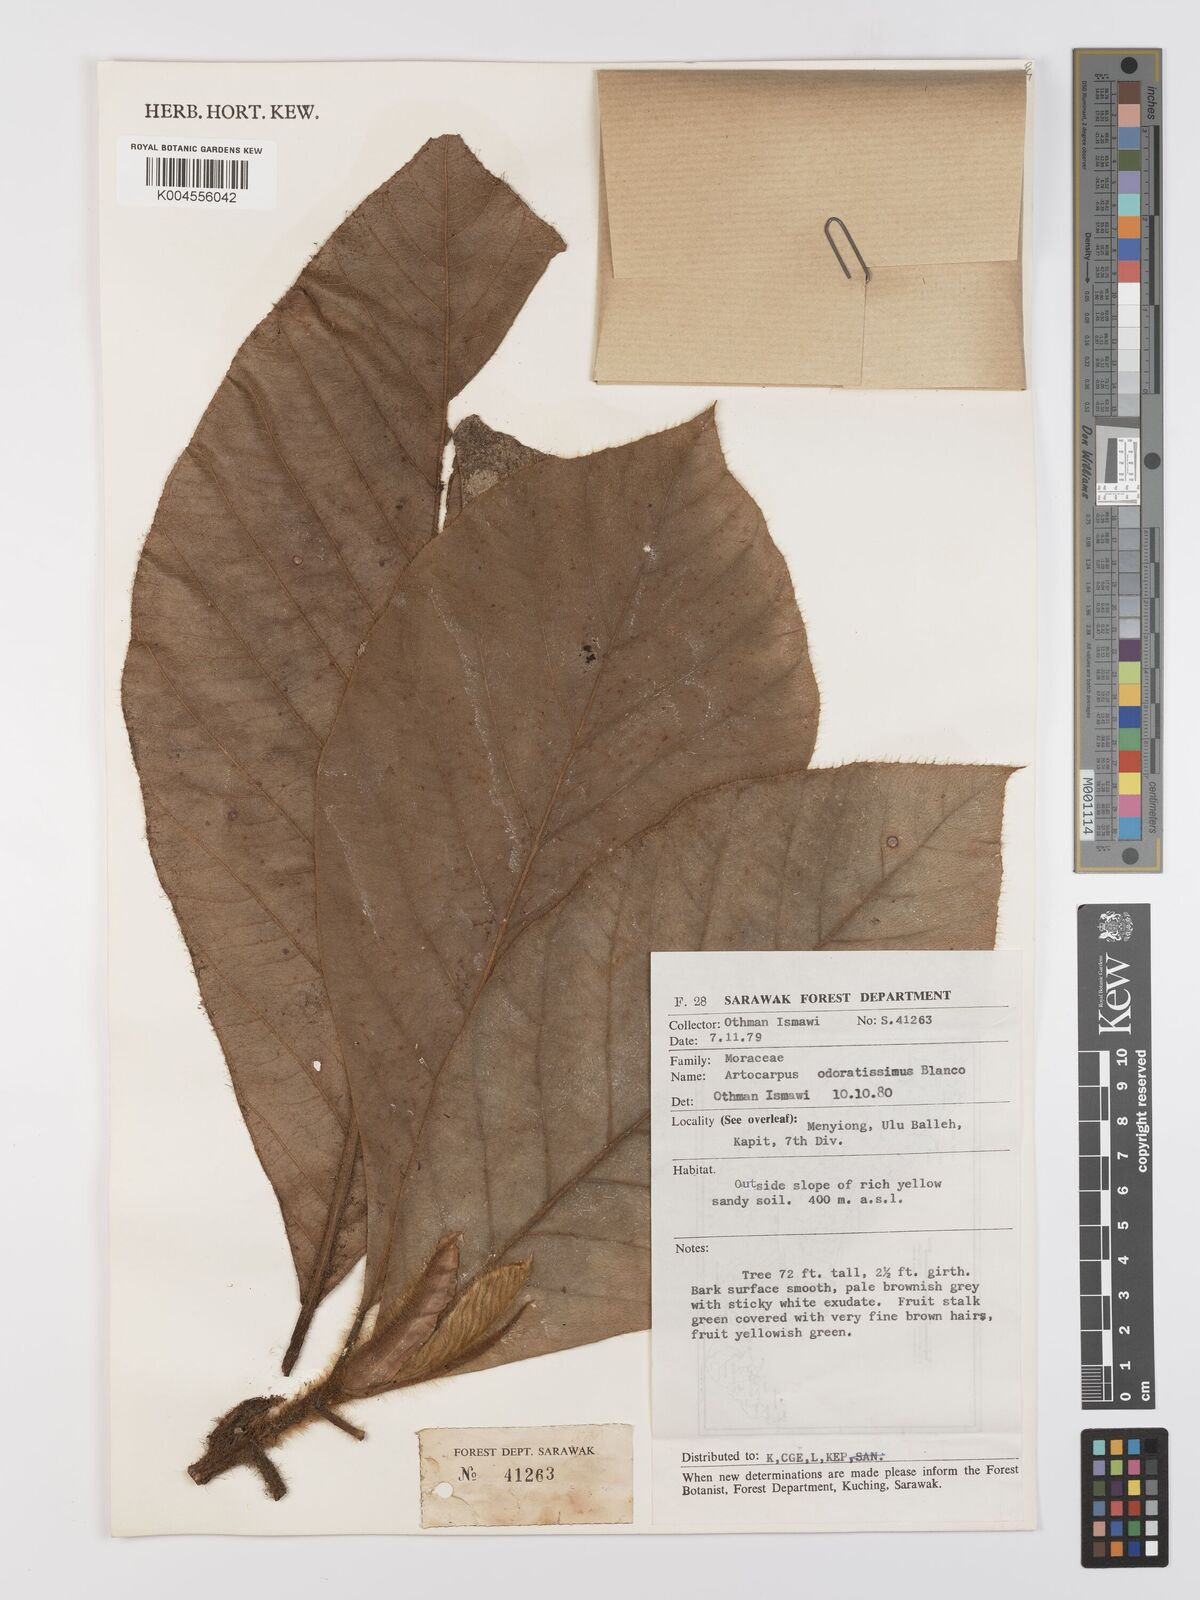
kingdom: Plantae
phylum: Tracheophyta
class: Magnoliopsida
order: Rosales
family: Moraceae
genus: Artocarpus
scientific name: Artocarpus odoratissimus
